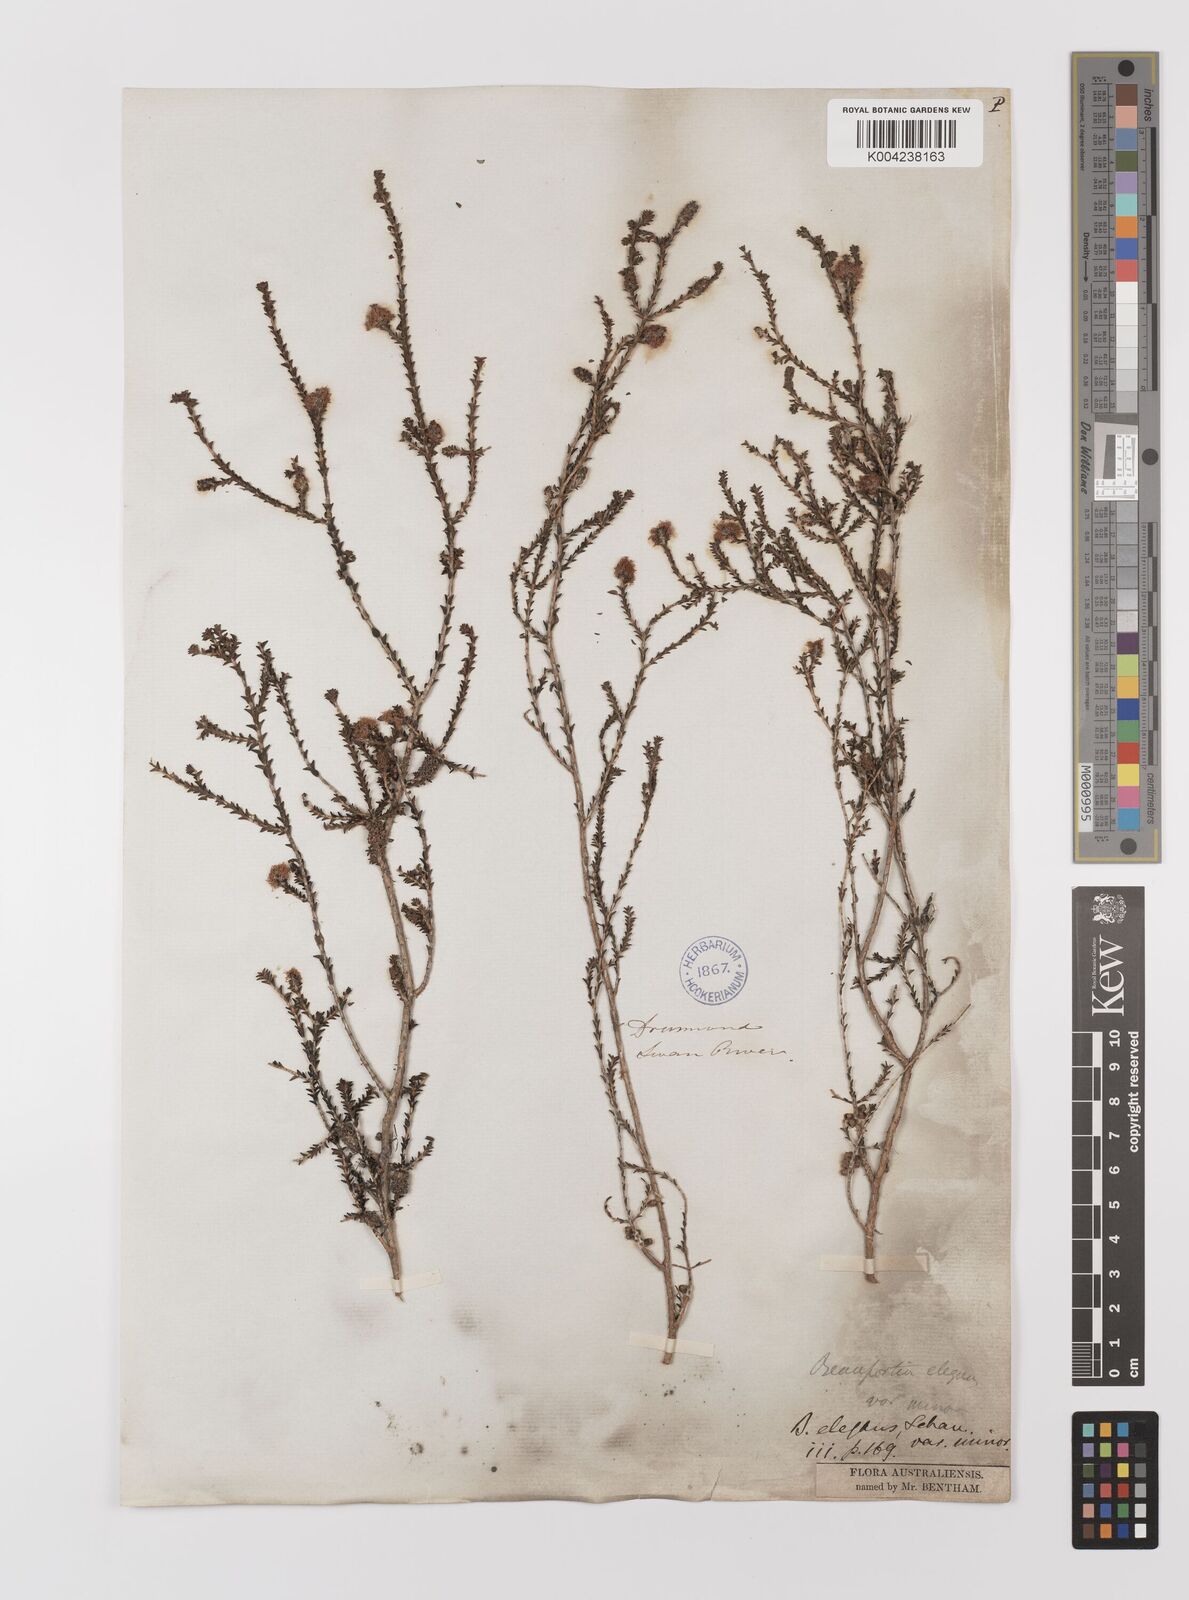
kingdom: Plantae
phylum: Tracheophyta
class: Magnoliopsida
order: Myrtales
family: Myrtaceae
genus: Melaleuca
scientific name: Melaleuca empetrifolia
